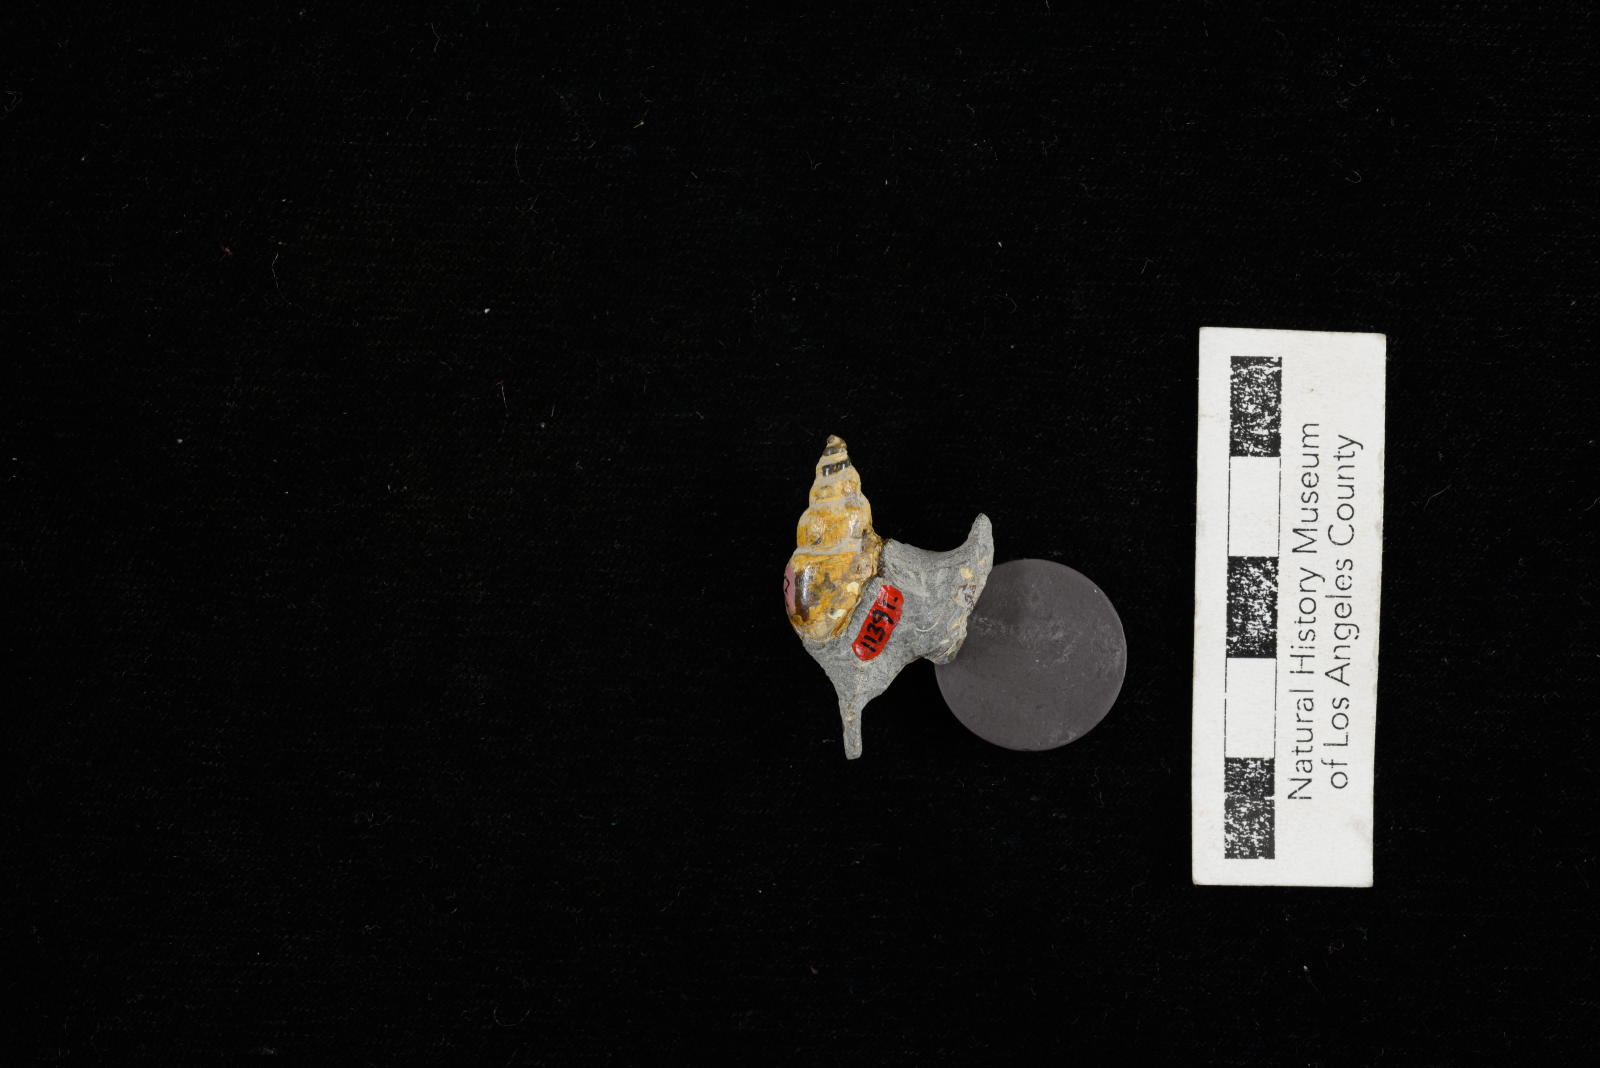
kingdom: Animalia
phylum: Mollusca
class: Gastropoda
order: Littorinimorpha
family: Aporrhaidae
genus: Latiala
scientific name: Latiala sigma
